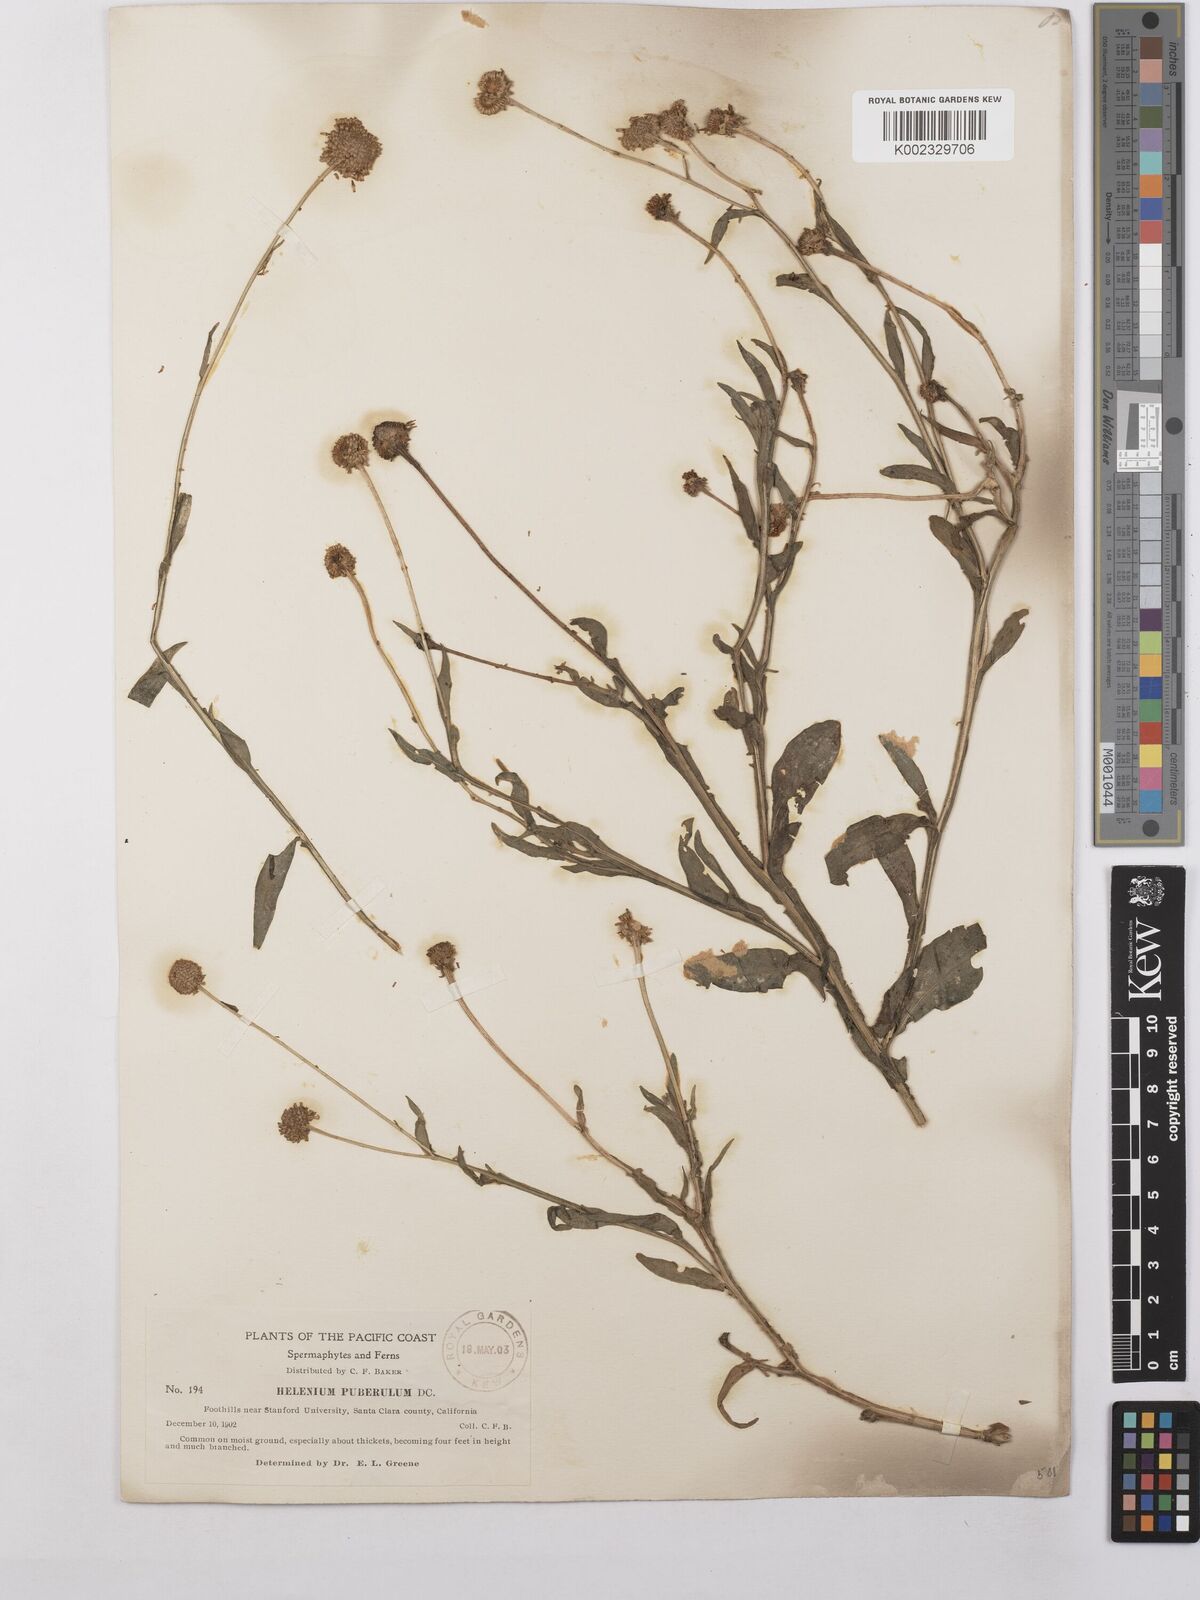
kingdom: Plantae
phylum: Tracheophyta
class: Magnoliopsida
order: Asterales
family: Asteraceae
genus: Helenium
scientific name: Helenium puberulum
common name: Sneezewort
